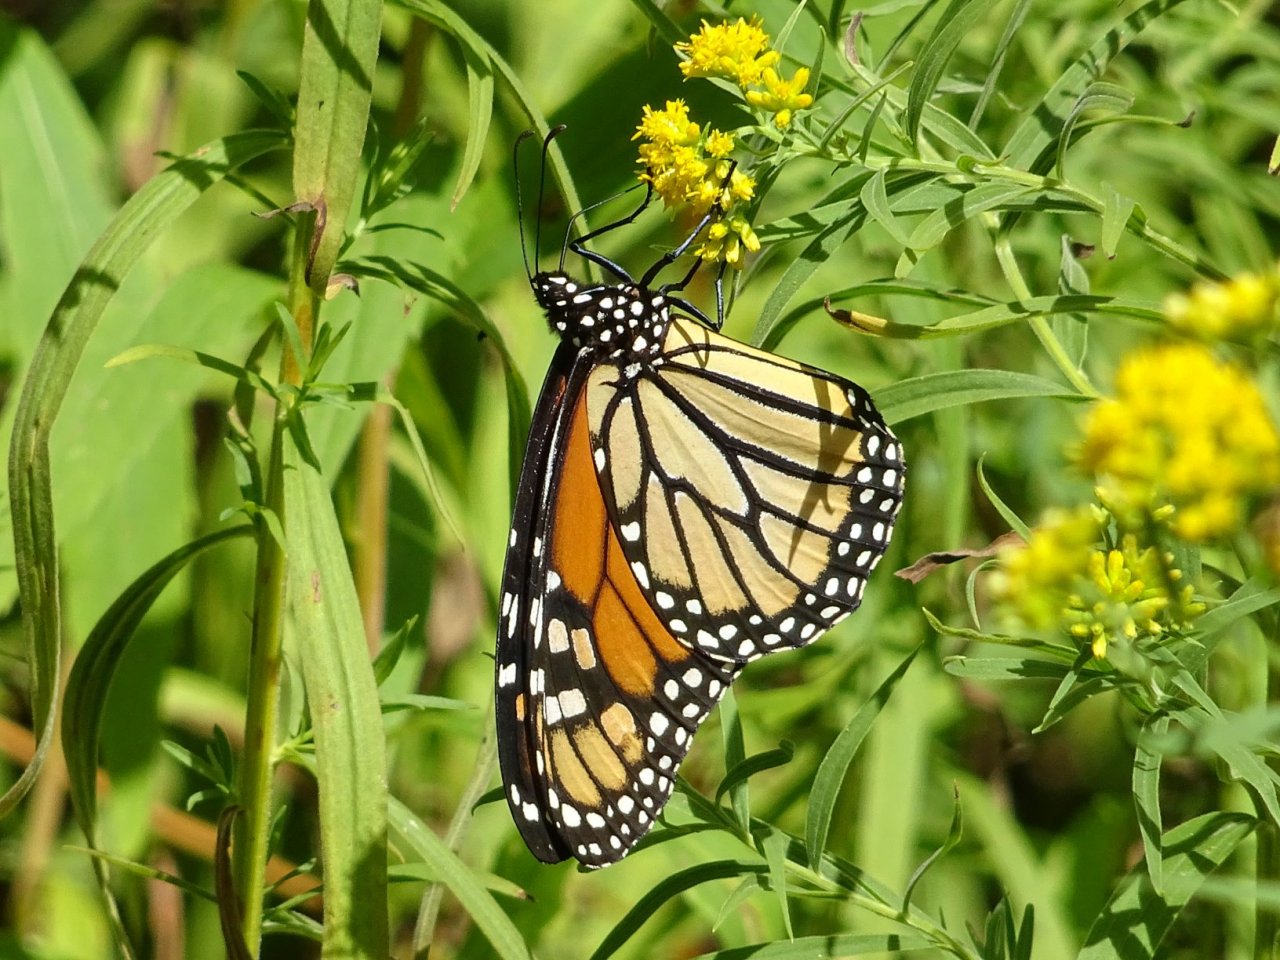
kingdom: Animalia
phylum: Arthropoda
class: Insecta
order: Lepidoptera
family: Nymphalidae
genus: Danaus
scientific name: Danaus plexippus
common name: Monarch
